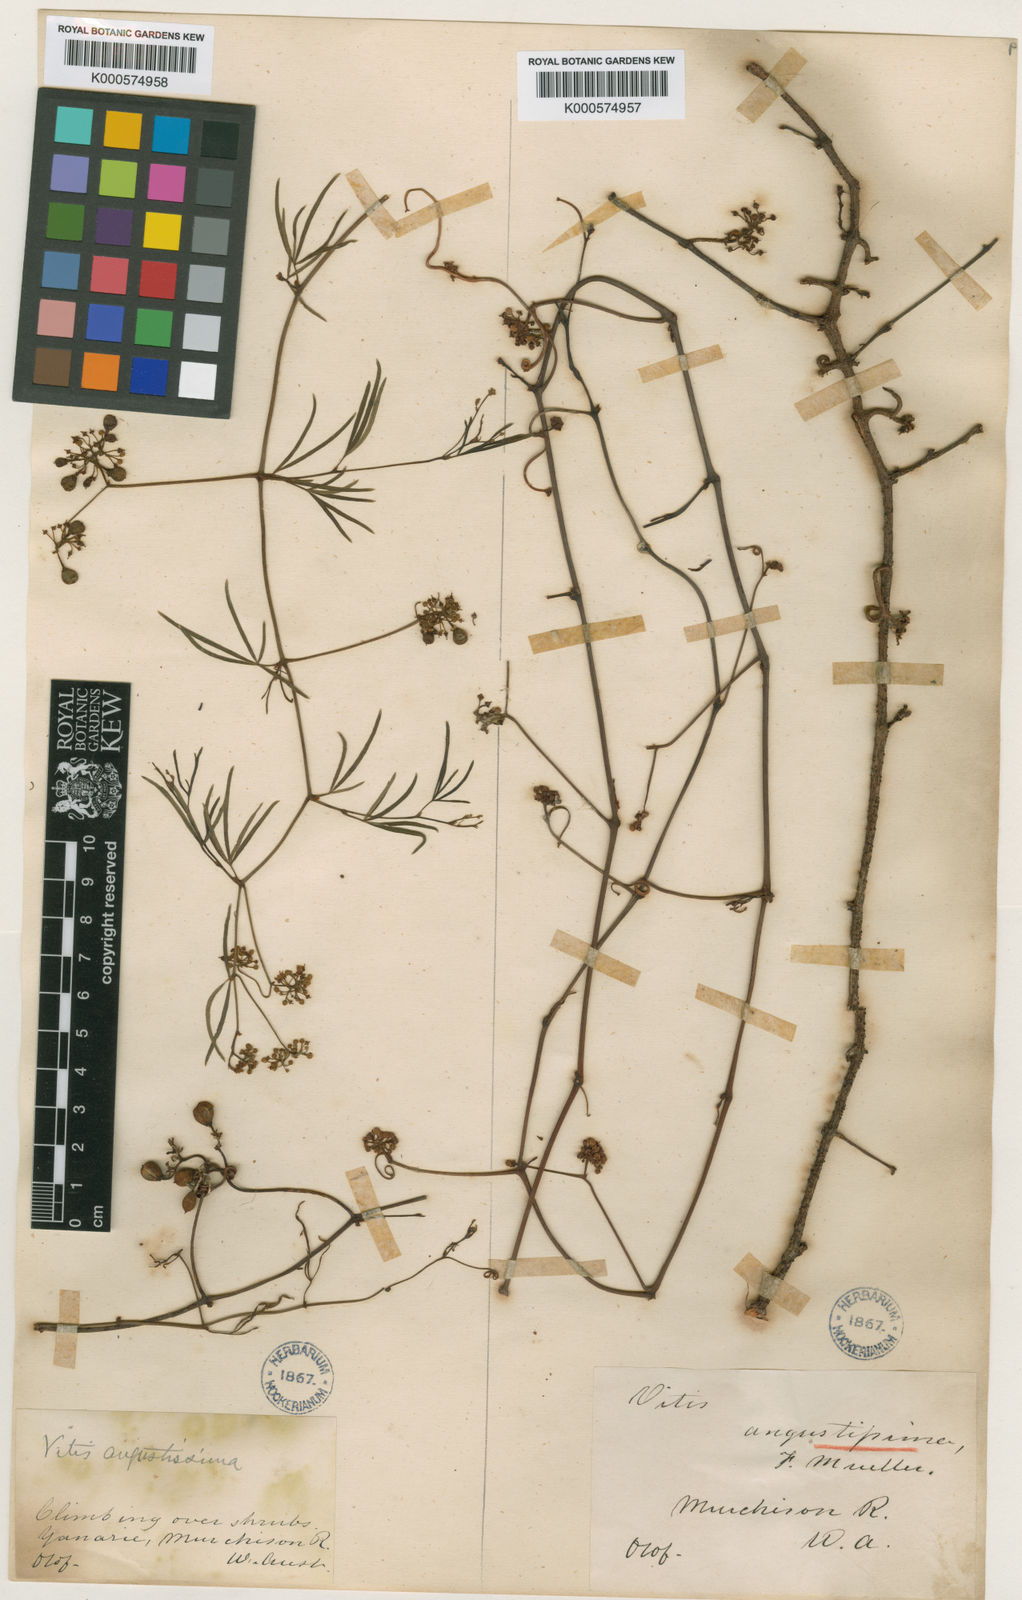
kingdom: Plantae
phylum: Tracheophyta
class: Magnoliopsida
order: Vitales
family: Vitaceae
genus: Clematicissus
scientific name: Clematicissus angustissima
